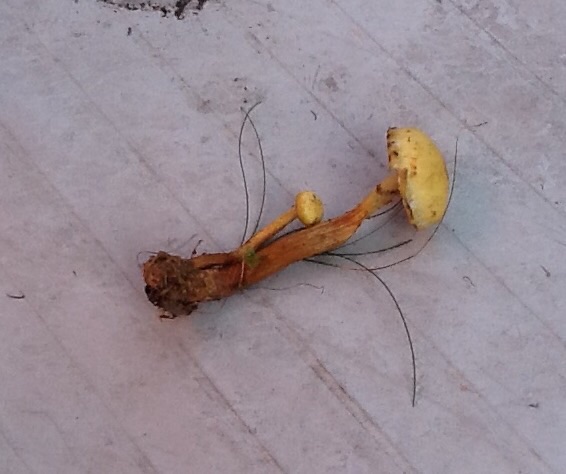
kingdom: Fungi
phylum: Basidiomycota
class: Agaricomycetes
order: Agaricales
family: Hymenogastraceae
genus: Flammula
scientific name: Flammula alnicola
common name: elle-skælhat
